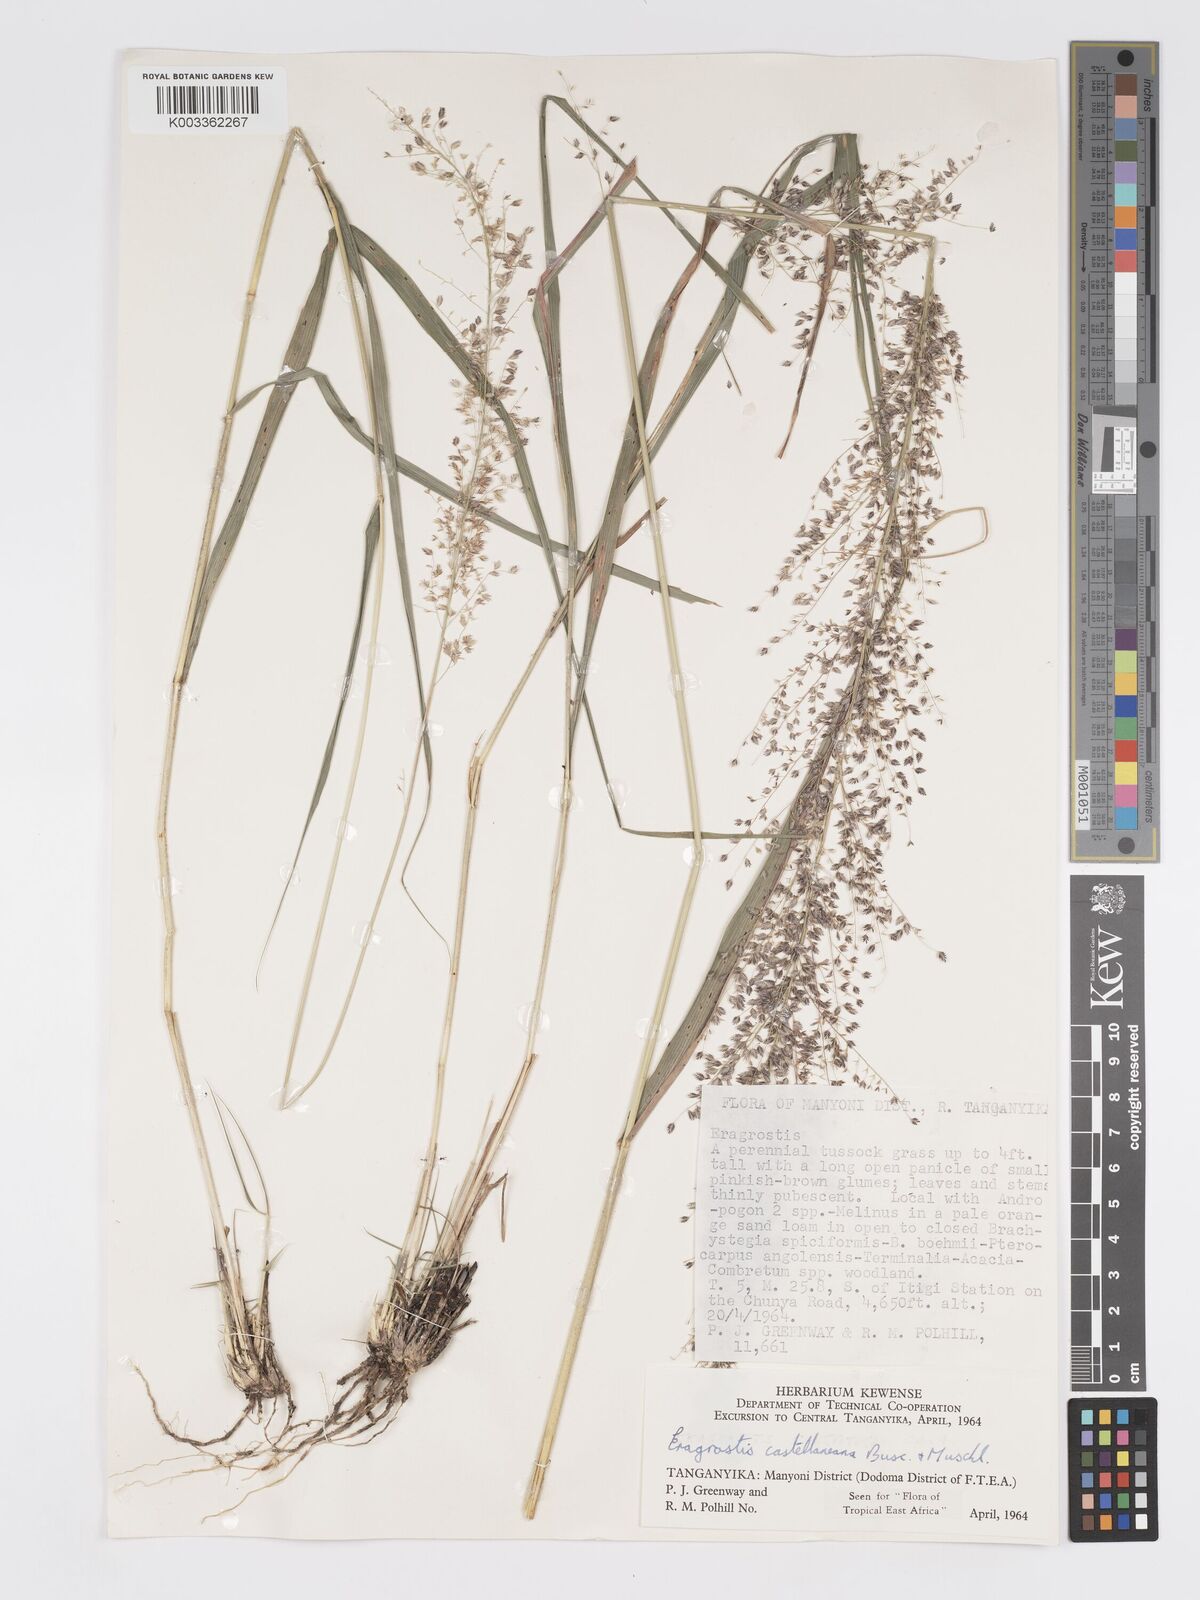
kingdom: Plantae
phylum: Tracheophyta
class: Liliopsida
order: Poales
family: Poaceae
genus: Eragrostis
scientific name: Eragrostis castellaneana
